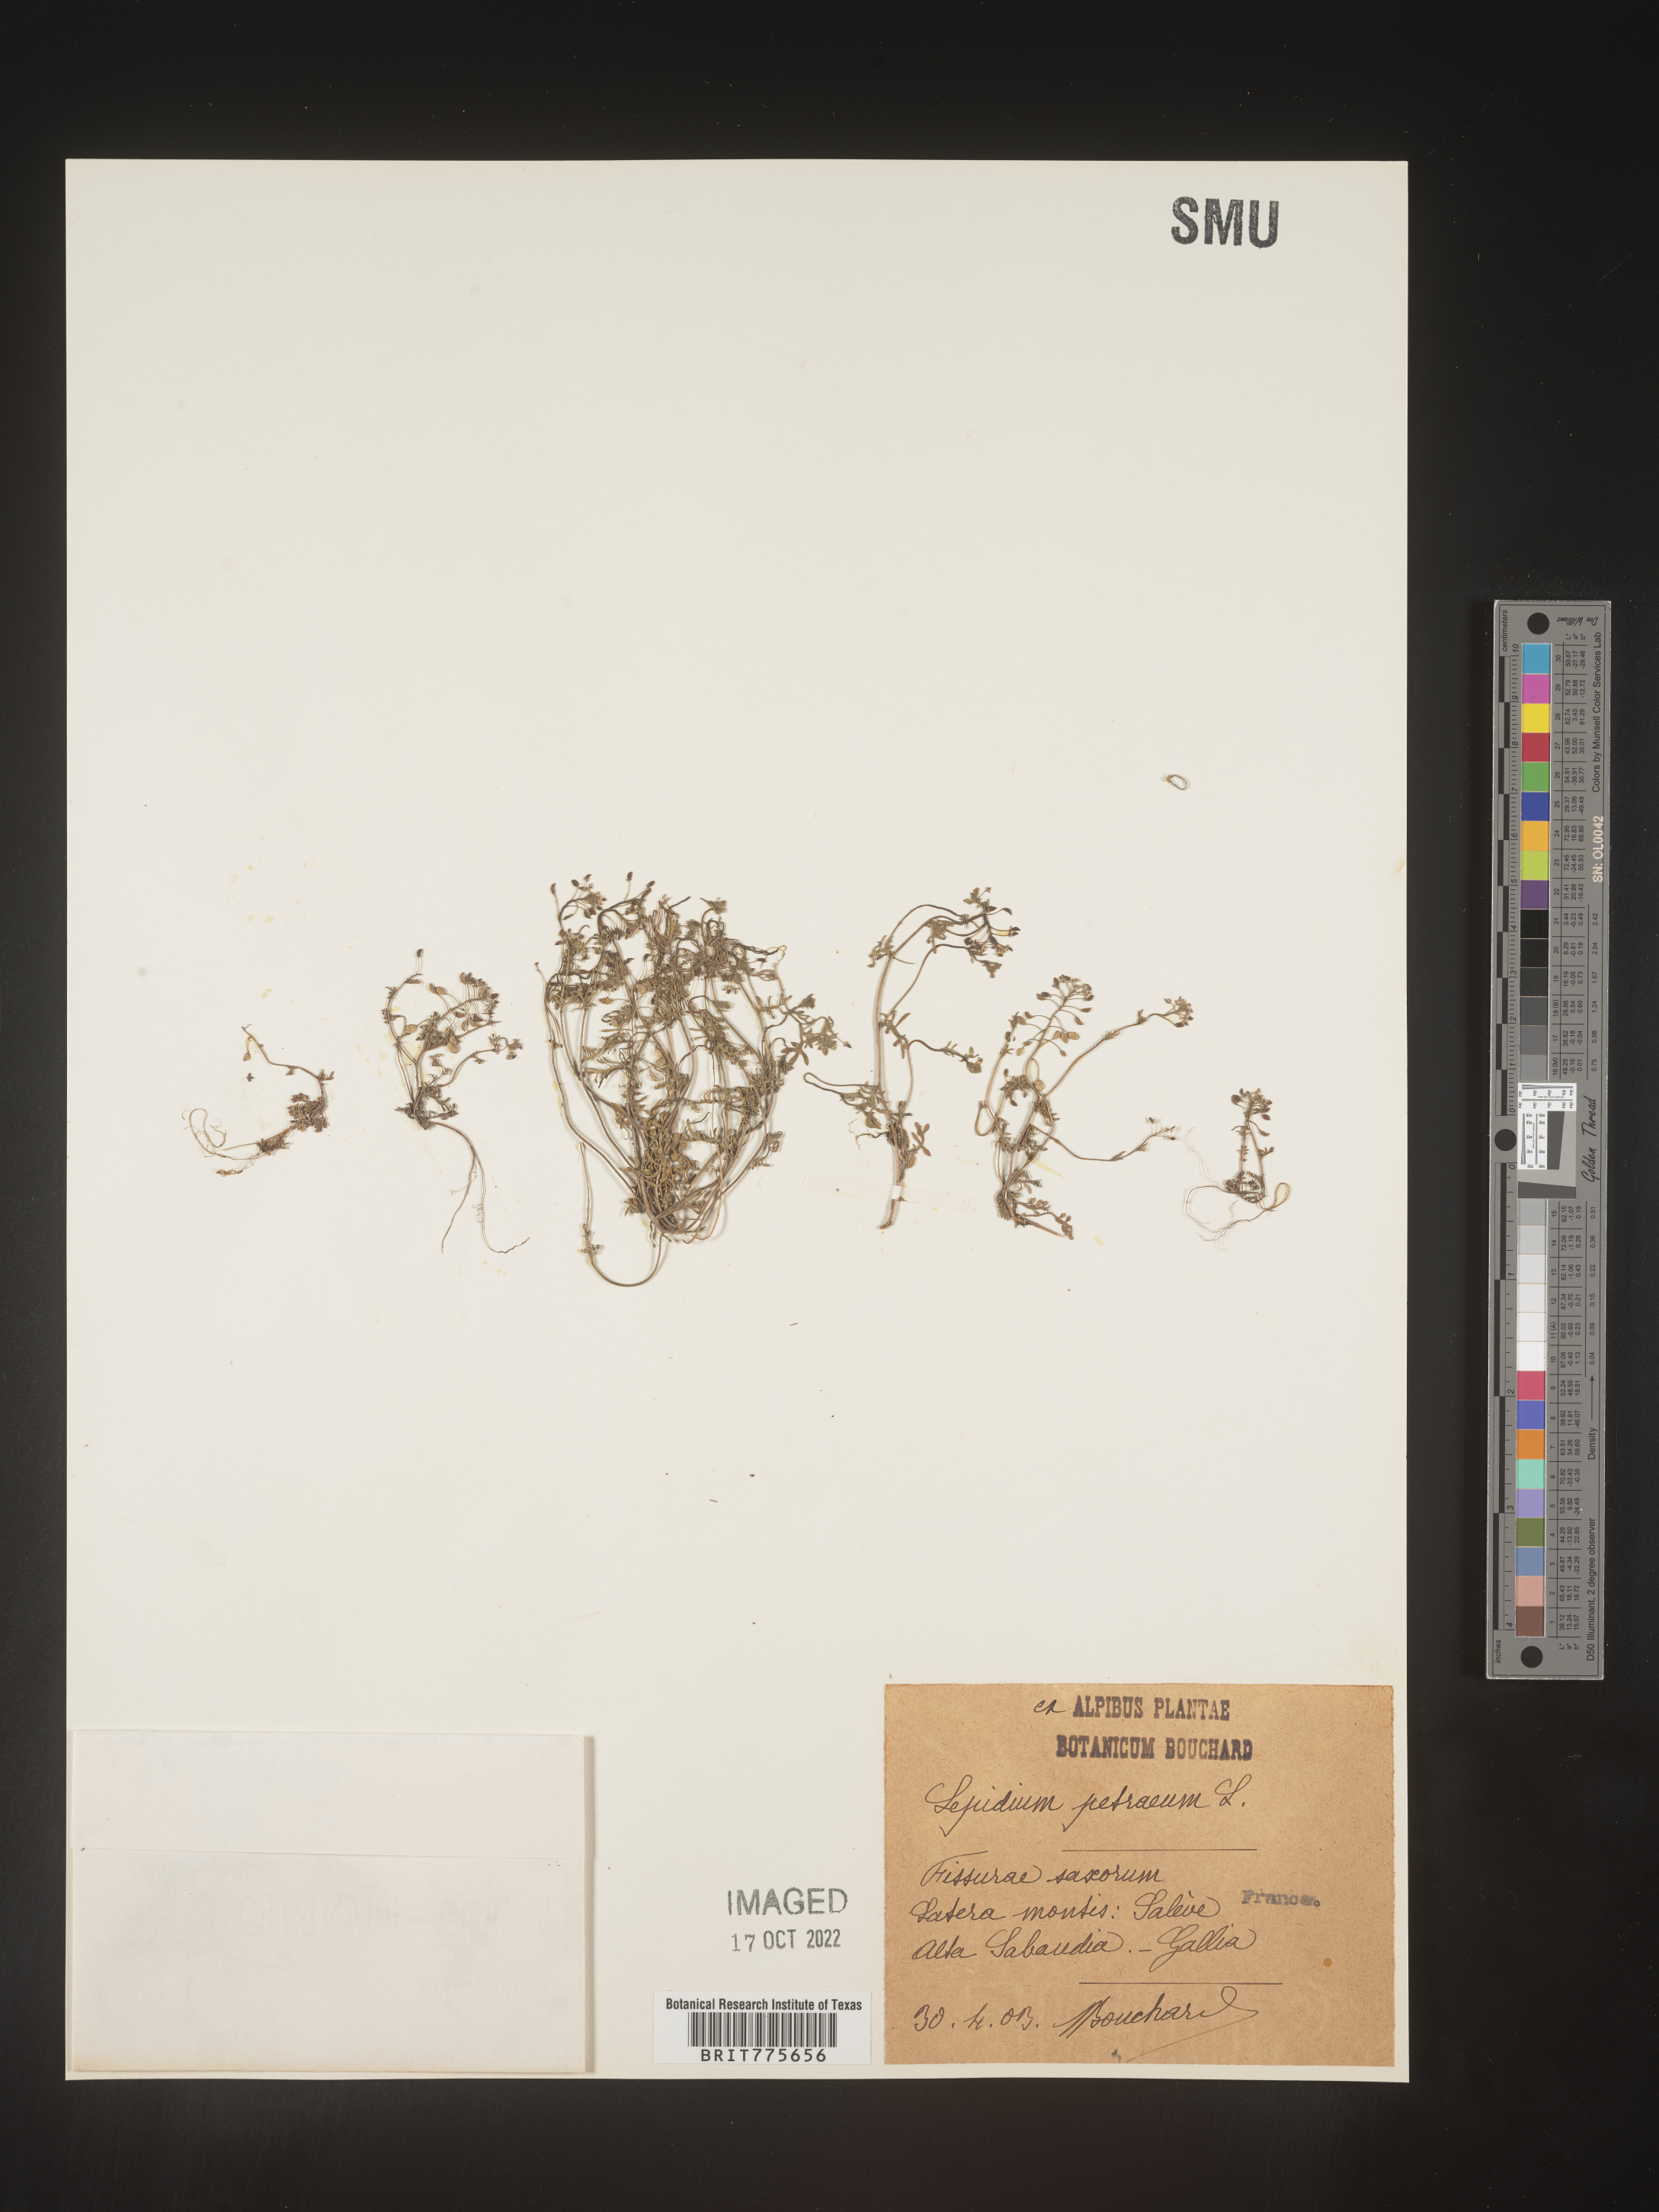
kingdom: Plantae
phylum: Tracheophyta
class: Magnoliopsida
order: Brassicales
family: Brassicaceae
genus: Hornungia
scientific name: Hornungia
